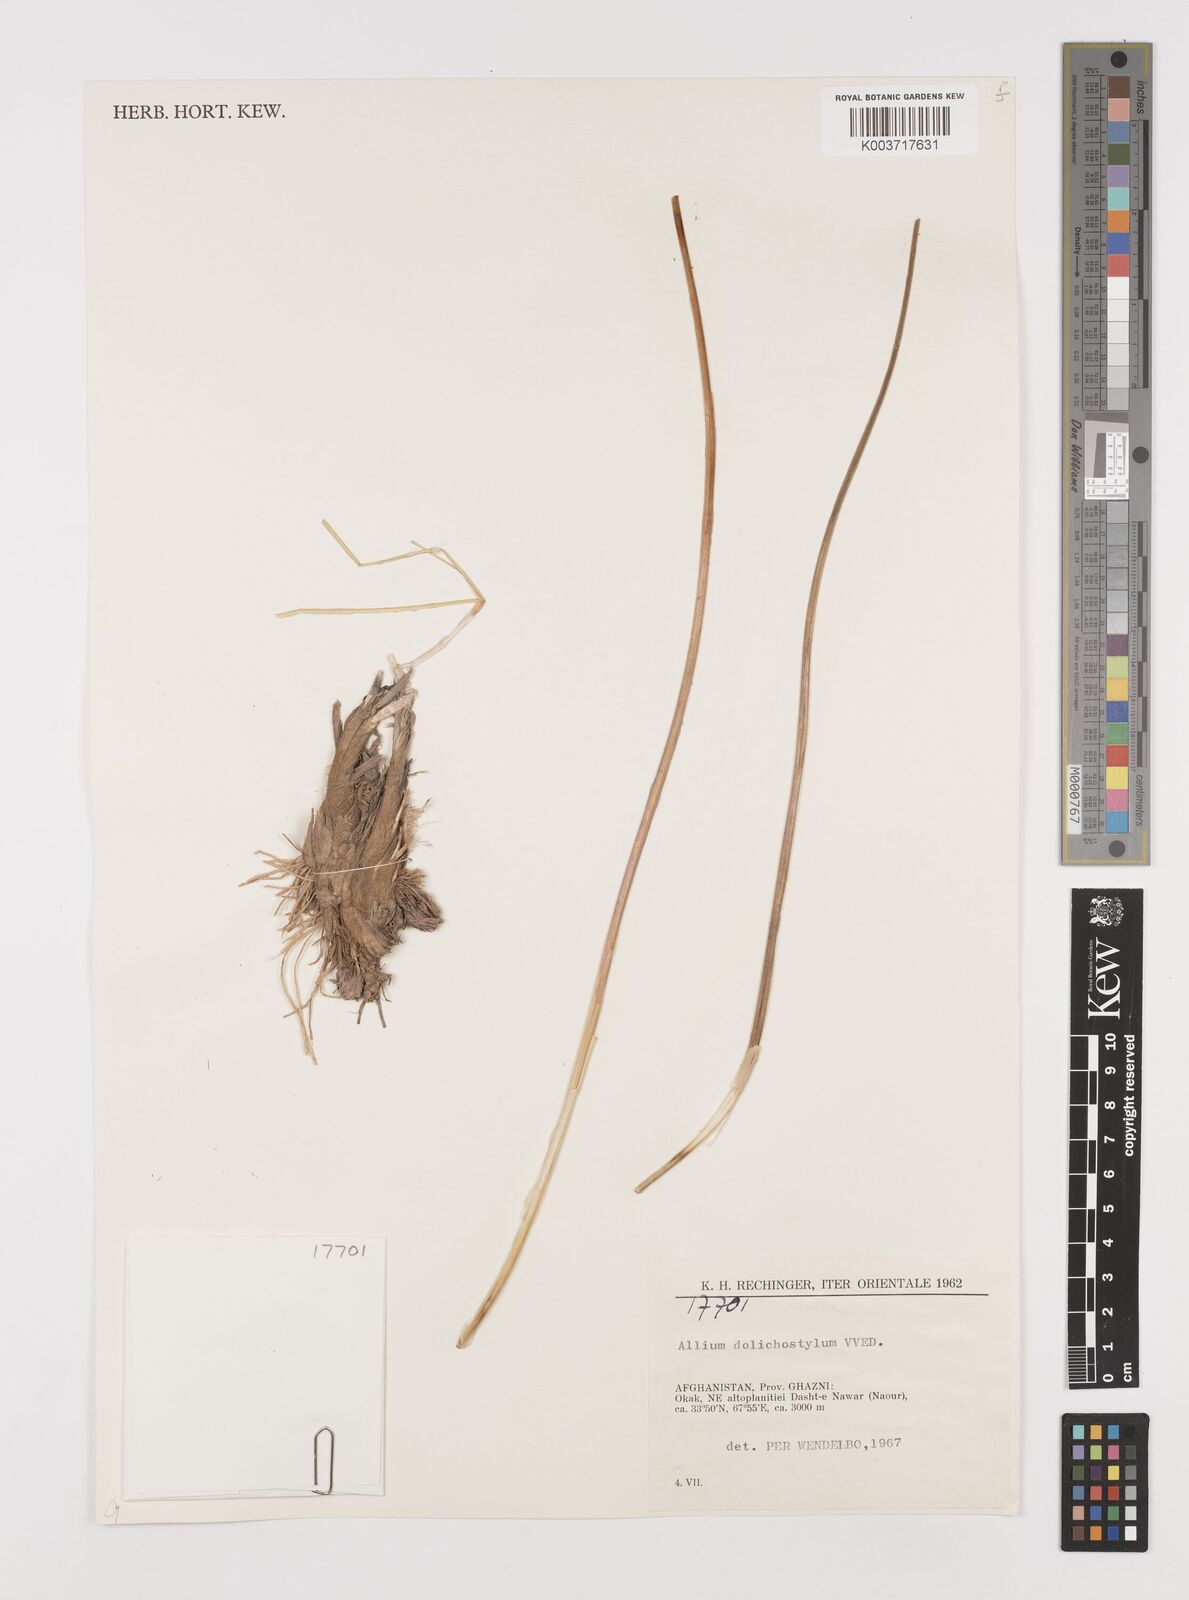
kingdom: Plantae
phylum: Tracheophyta
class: Liliopsida
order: Asparagales
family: Amaryllidaceae
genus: Allium
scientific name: Allium dolichostylum
